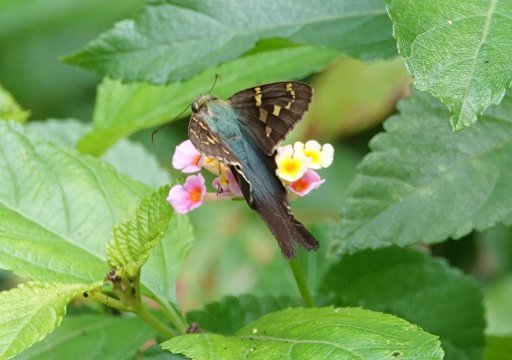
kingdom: Animalia
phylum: Arthropoda
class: Insecta
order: Lepidoptera
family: Hesperiidae
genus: Urbanus
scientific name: Urbanus proteus
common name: Long-tailed Skipper
